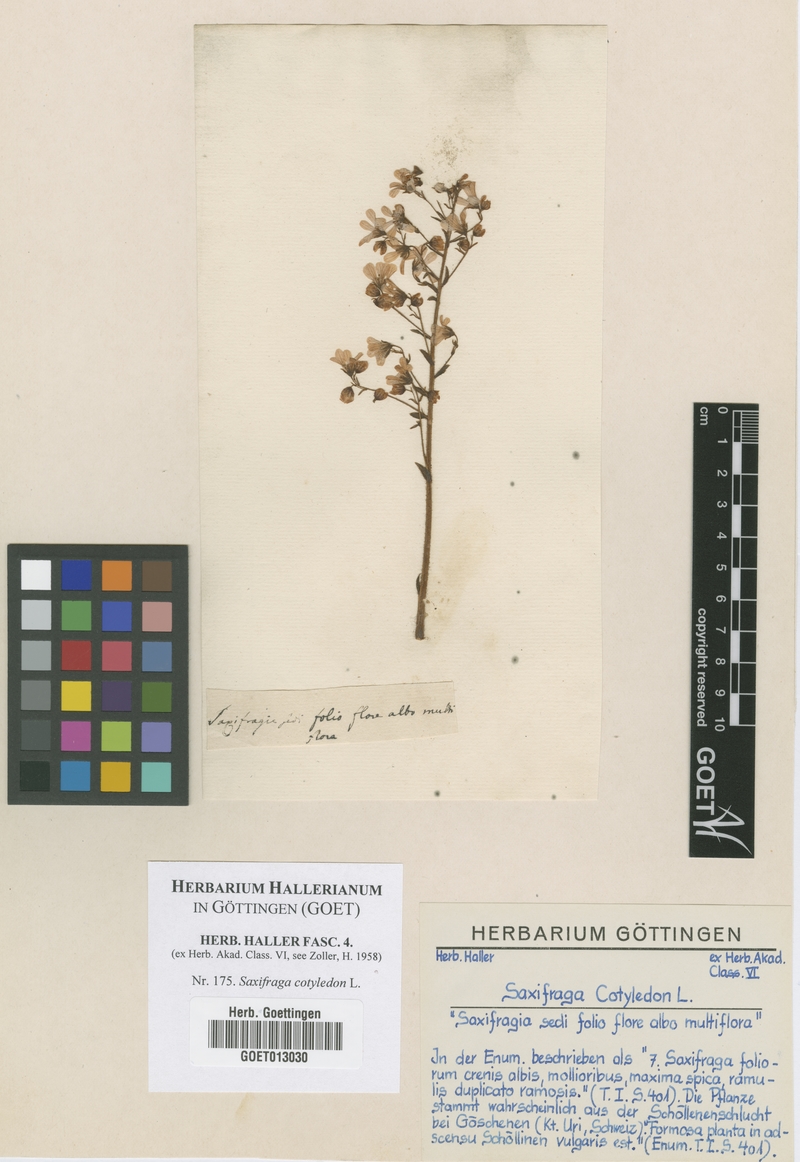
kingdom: Plantae
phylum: Tracheophyta
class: Magnoliopsida
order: Saxifragales
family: Saxifragaceae
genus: Saxifraga
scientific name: Saxifraga cotyledon
